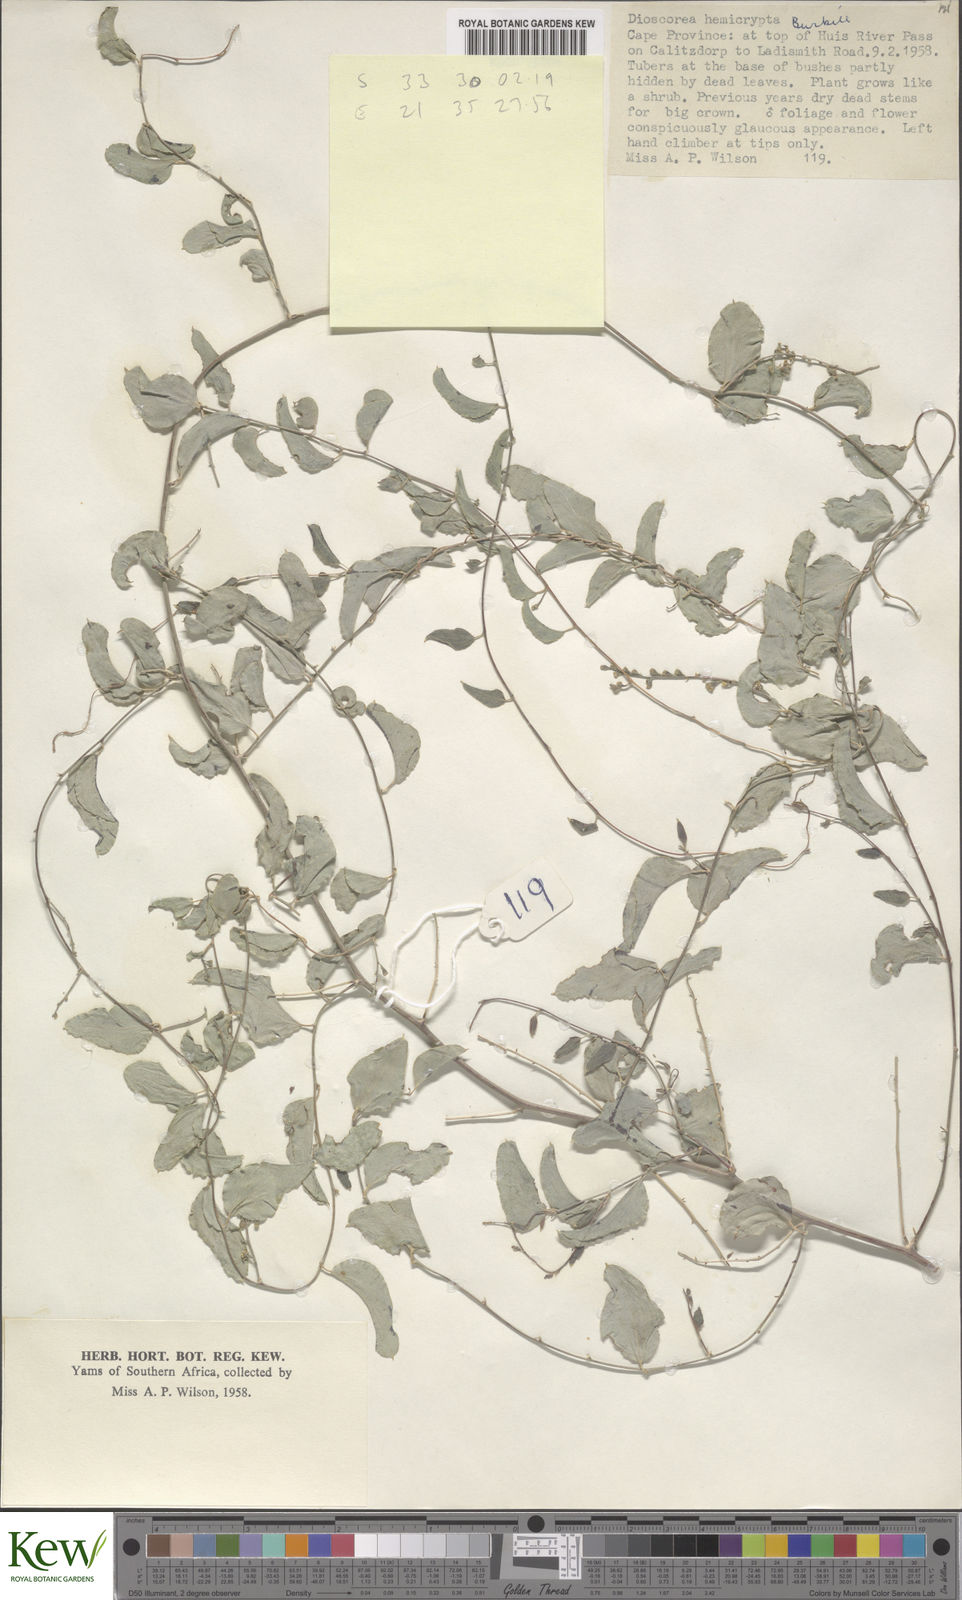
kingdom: Plantae
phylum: Tracheophyta
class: Liliopsida
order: Dioscoreales
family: Dioscoreaceae
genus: Dioscorea
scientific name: Dioscorea hemicrypta
